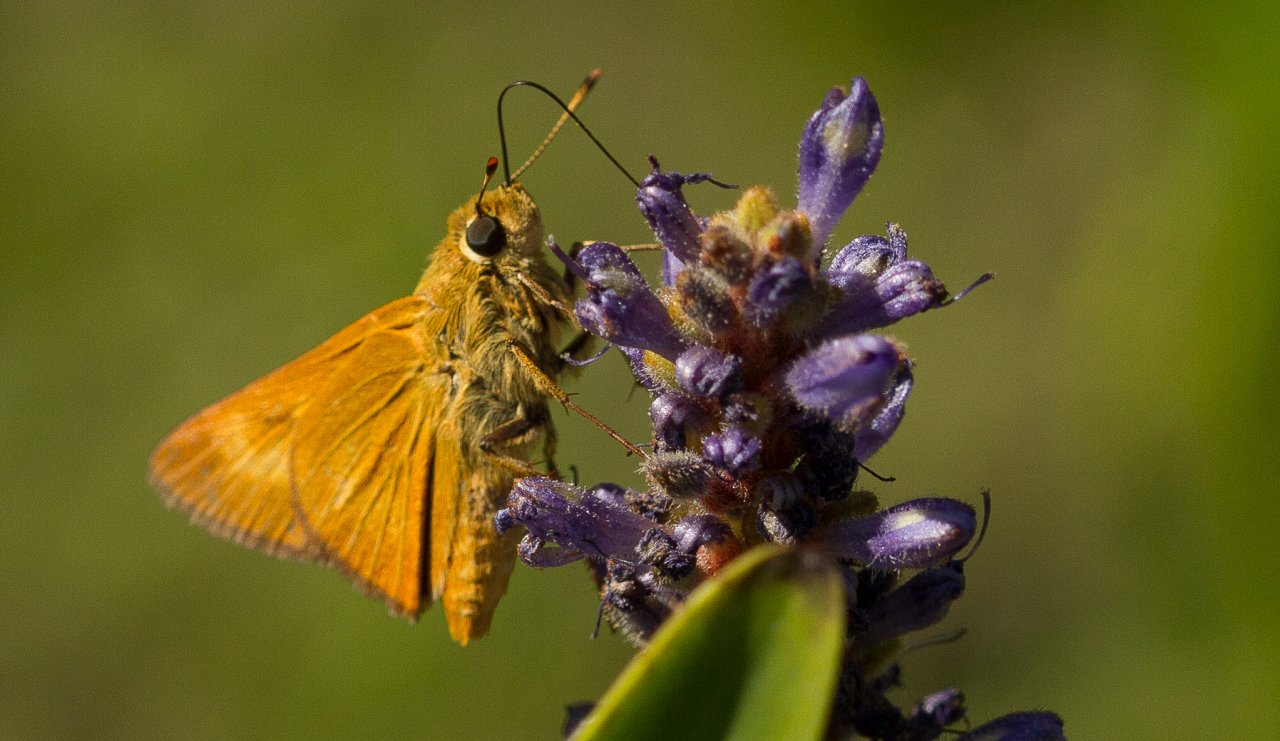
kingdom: Animalia
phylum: Arthropoda
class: Insecta
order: Lepidoptera
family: Hesperiidae
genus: Problema
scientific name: Problema byssus
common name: Byssus Skipper
